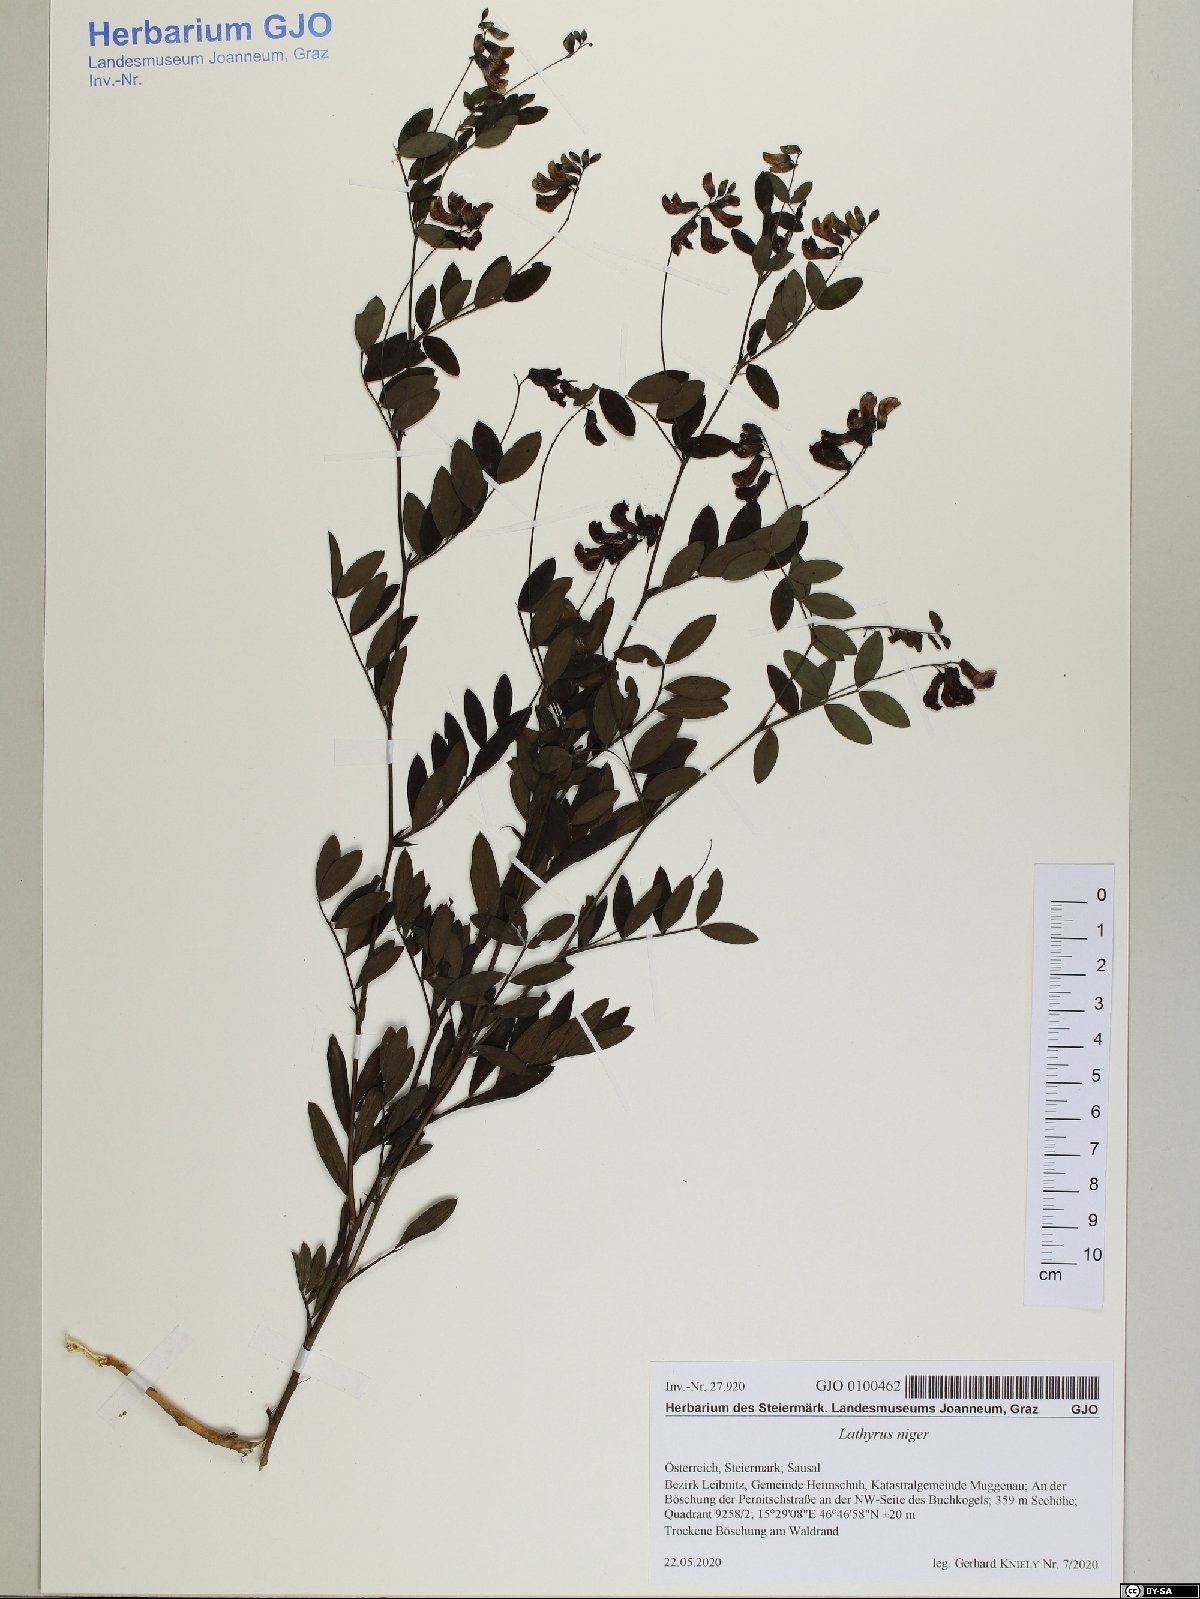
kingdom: Plantae
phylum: Tracheophyta
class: Magnoliopsida
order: Fabales
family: Fabaceae
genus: Lathyrus
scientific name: Lathyrus niger
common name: Black pea
